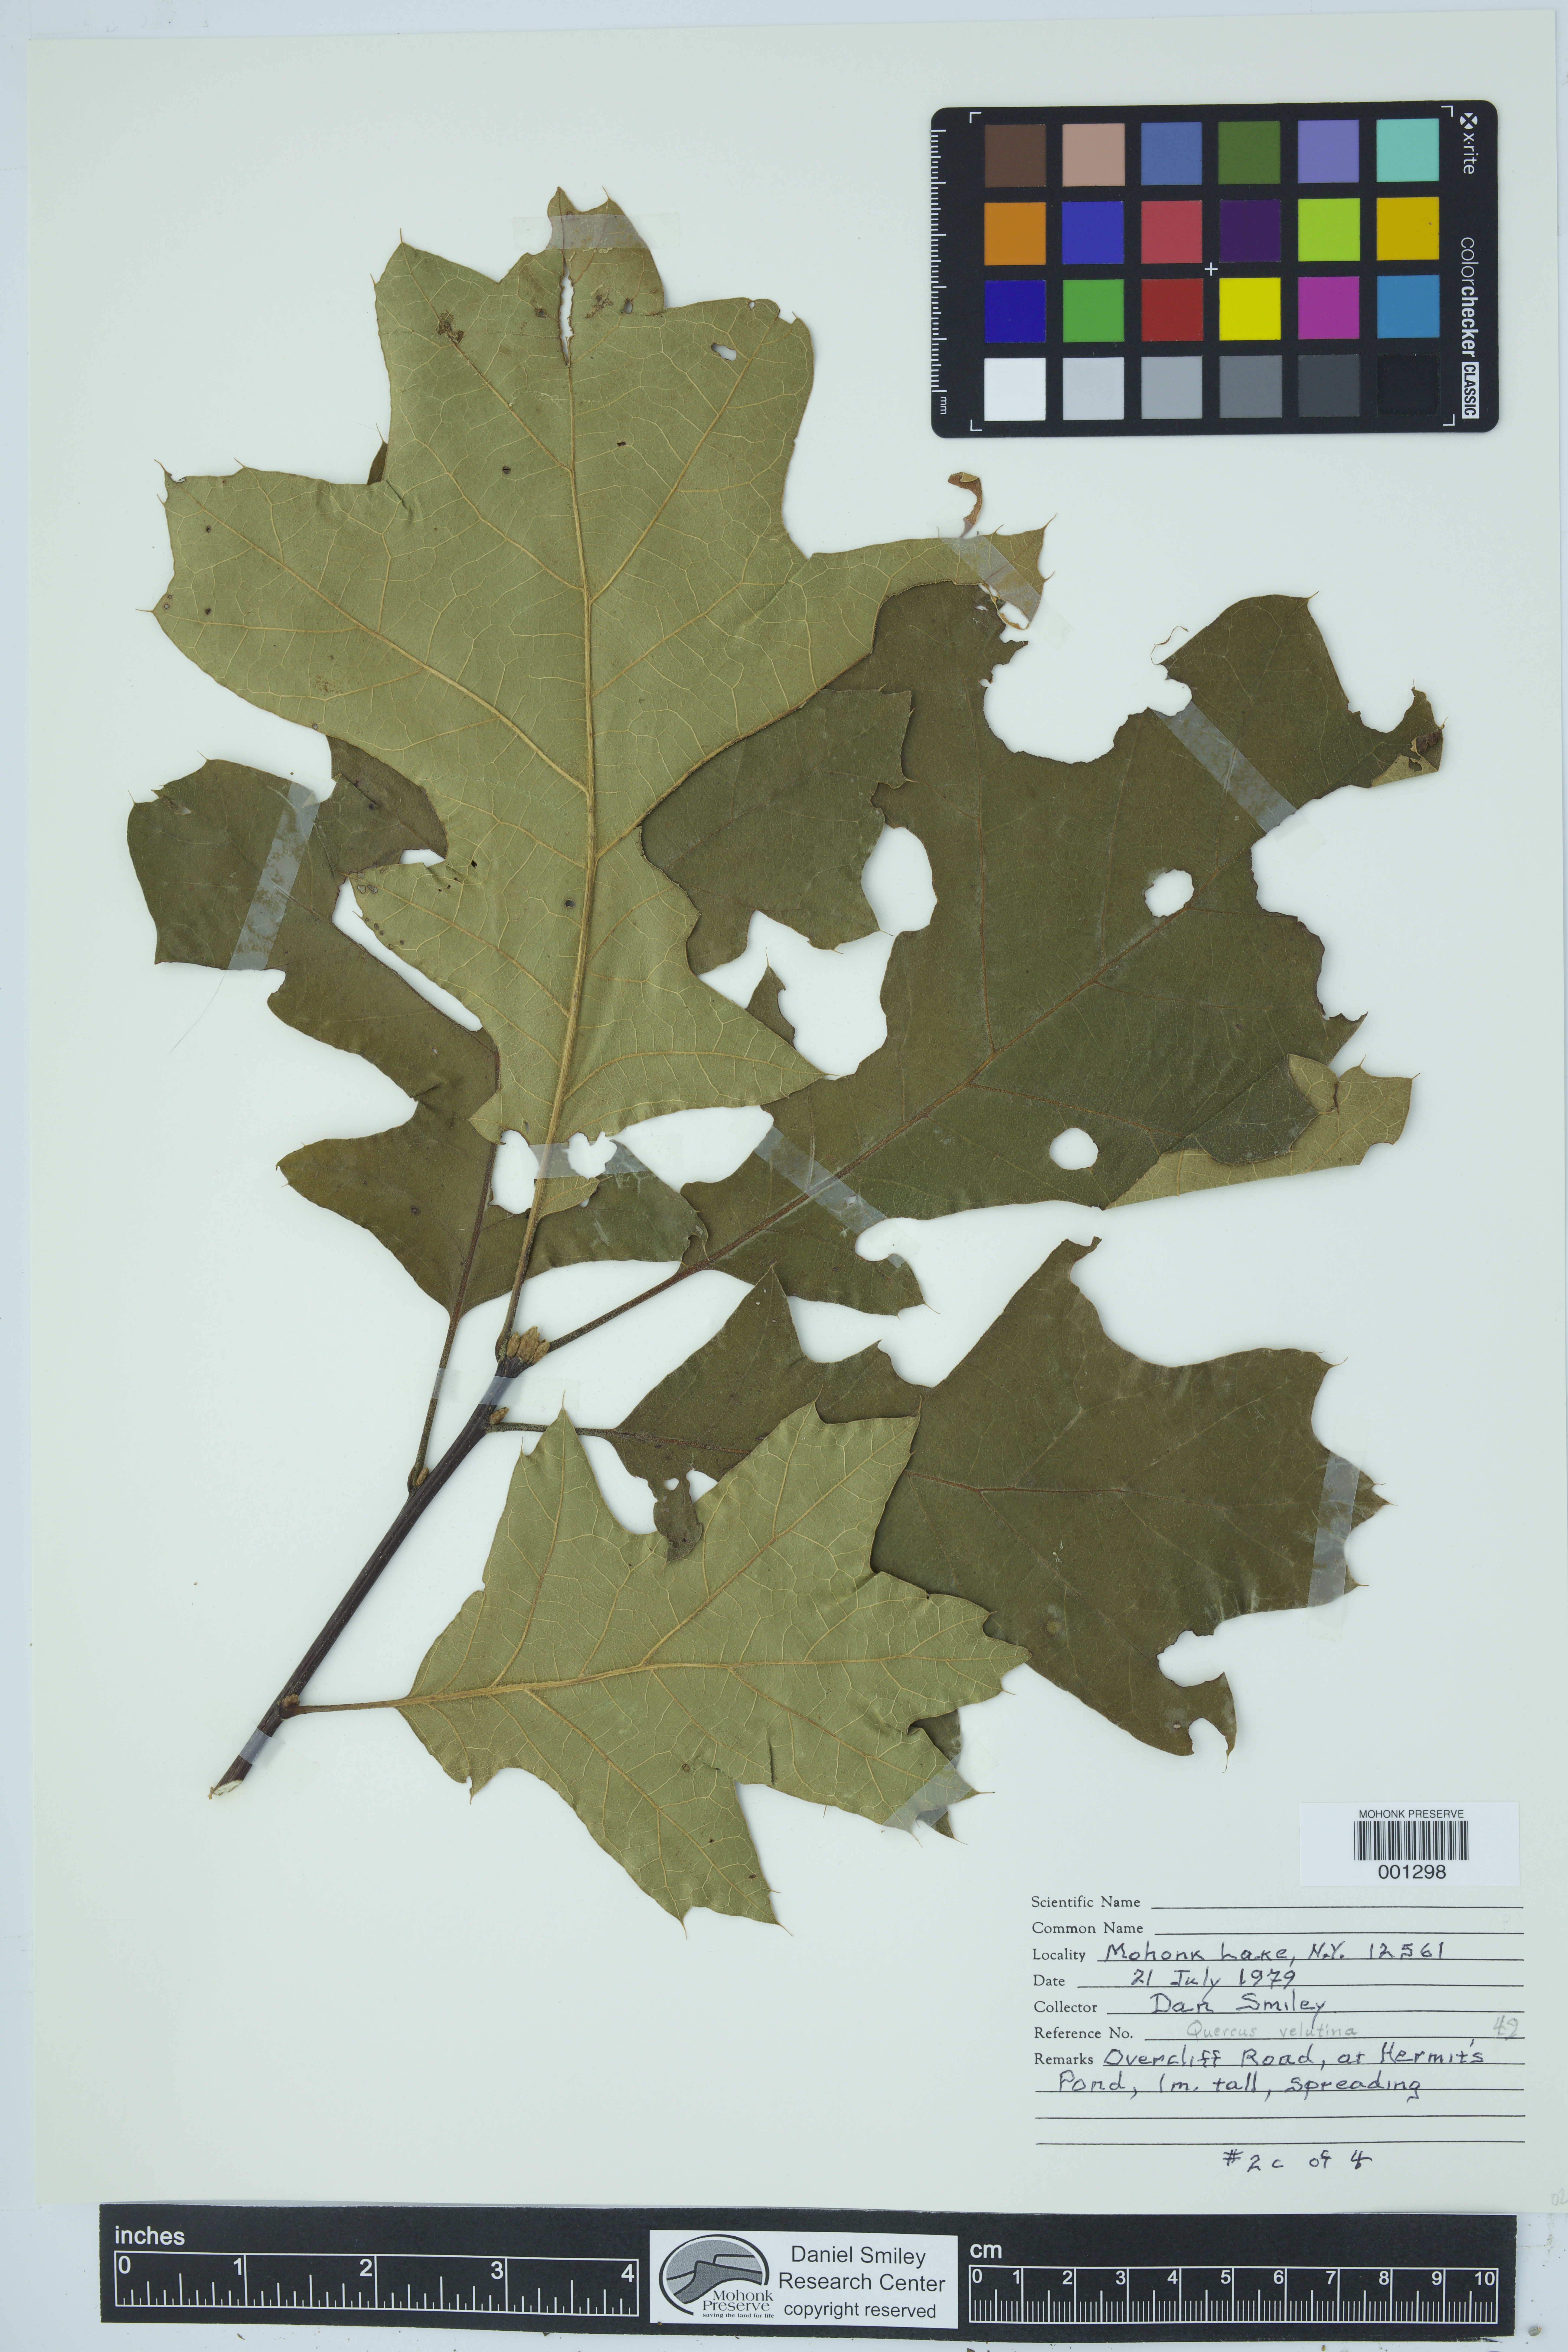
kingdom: Plantae
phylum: Tracheophyta
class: Magnoliopsida
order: Fagales
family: Fagaceae
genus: Quercus
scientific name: Quercus velutina
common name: Black oak
